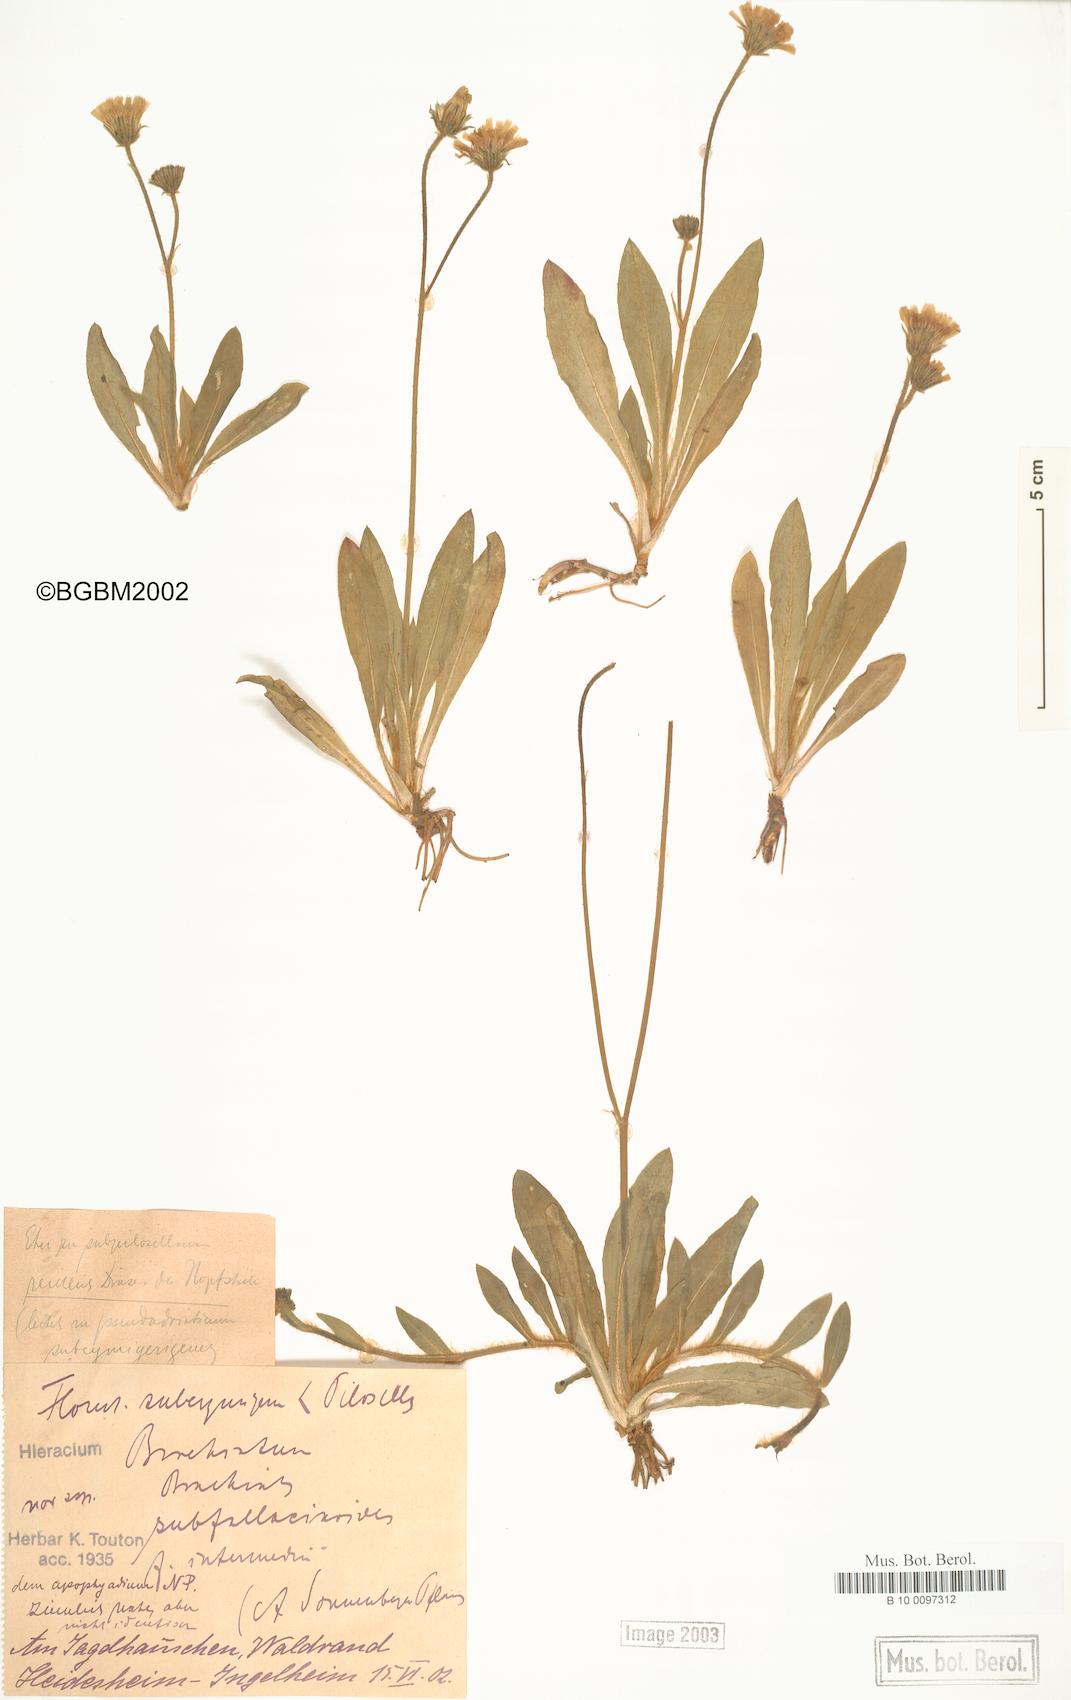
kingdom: Plantae
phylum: Tracheophyta
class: Magnoliopsida
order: Asterales
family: Asteraceae
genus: Pilosella
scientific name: Pilosella acutifolia
